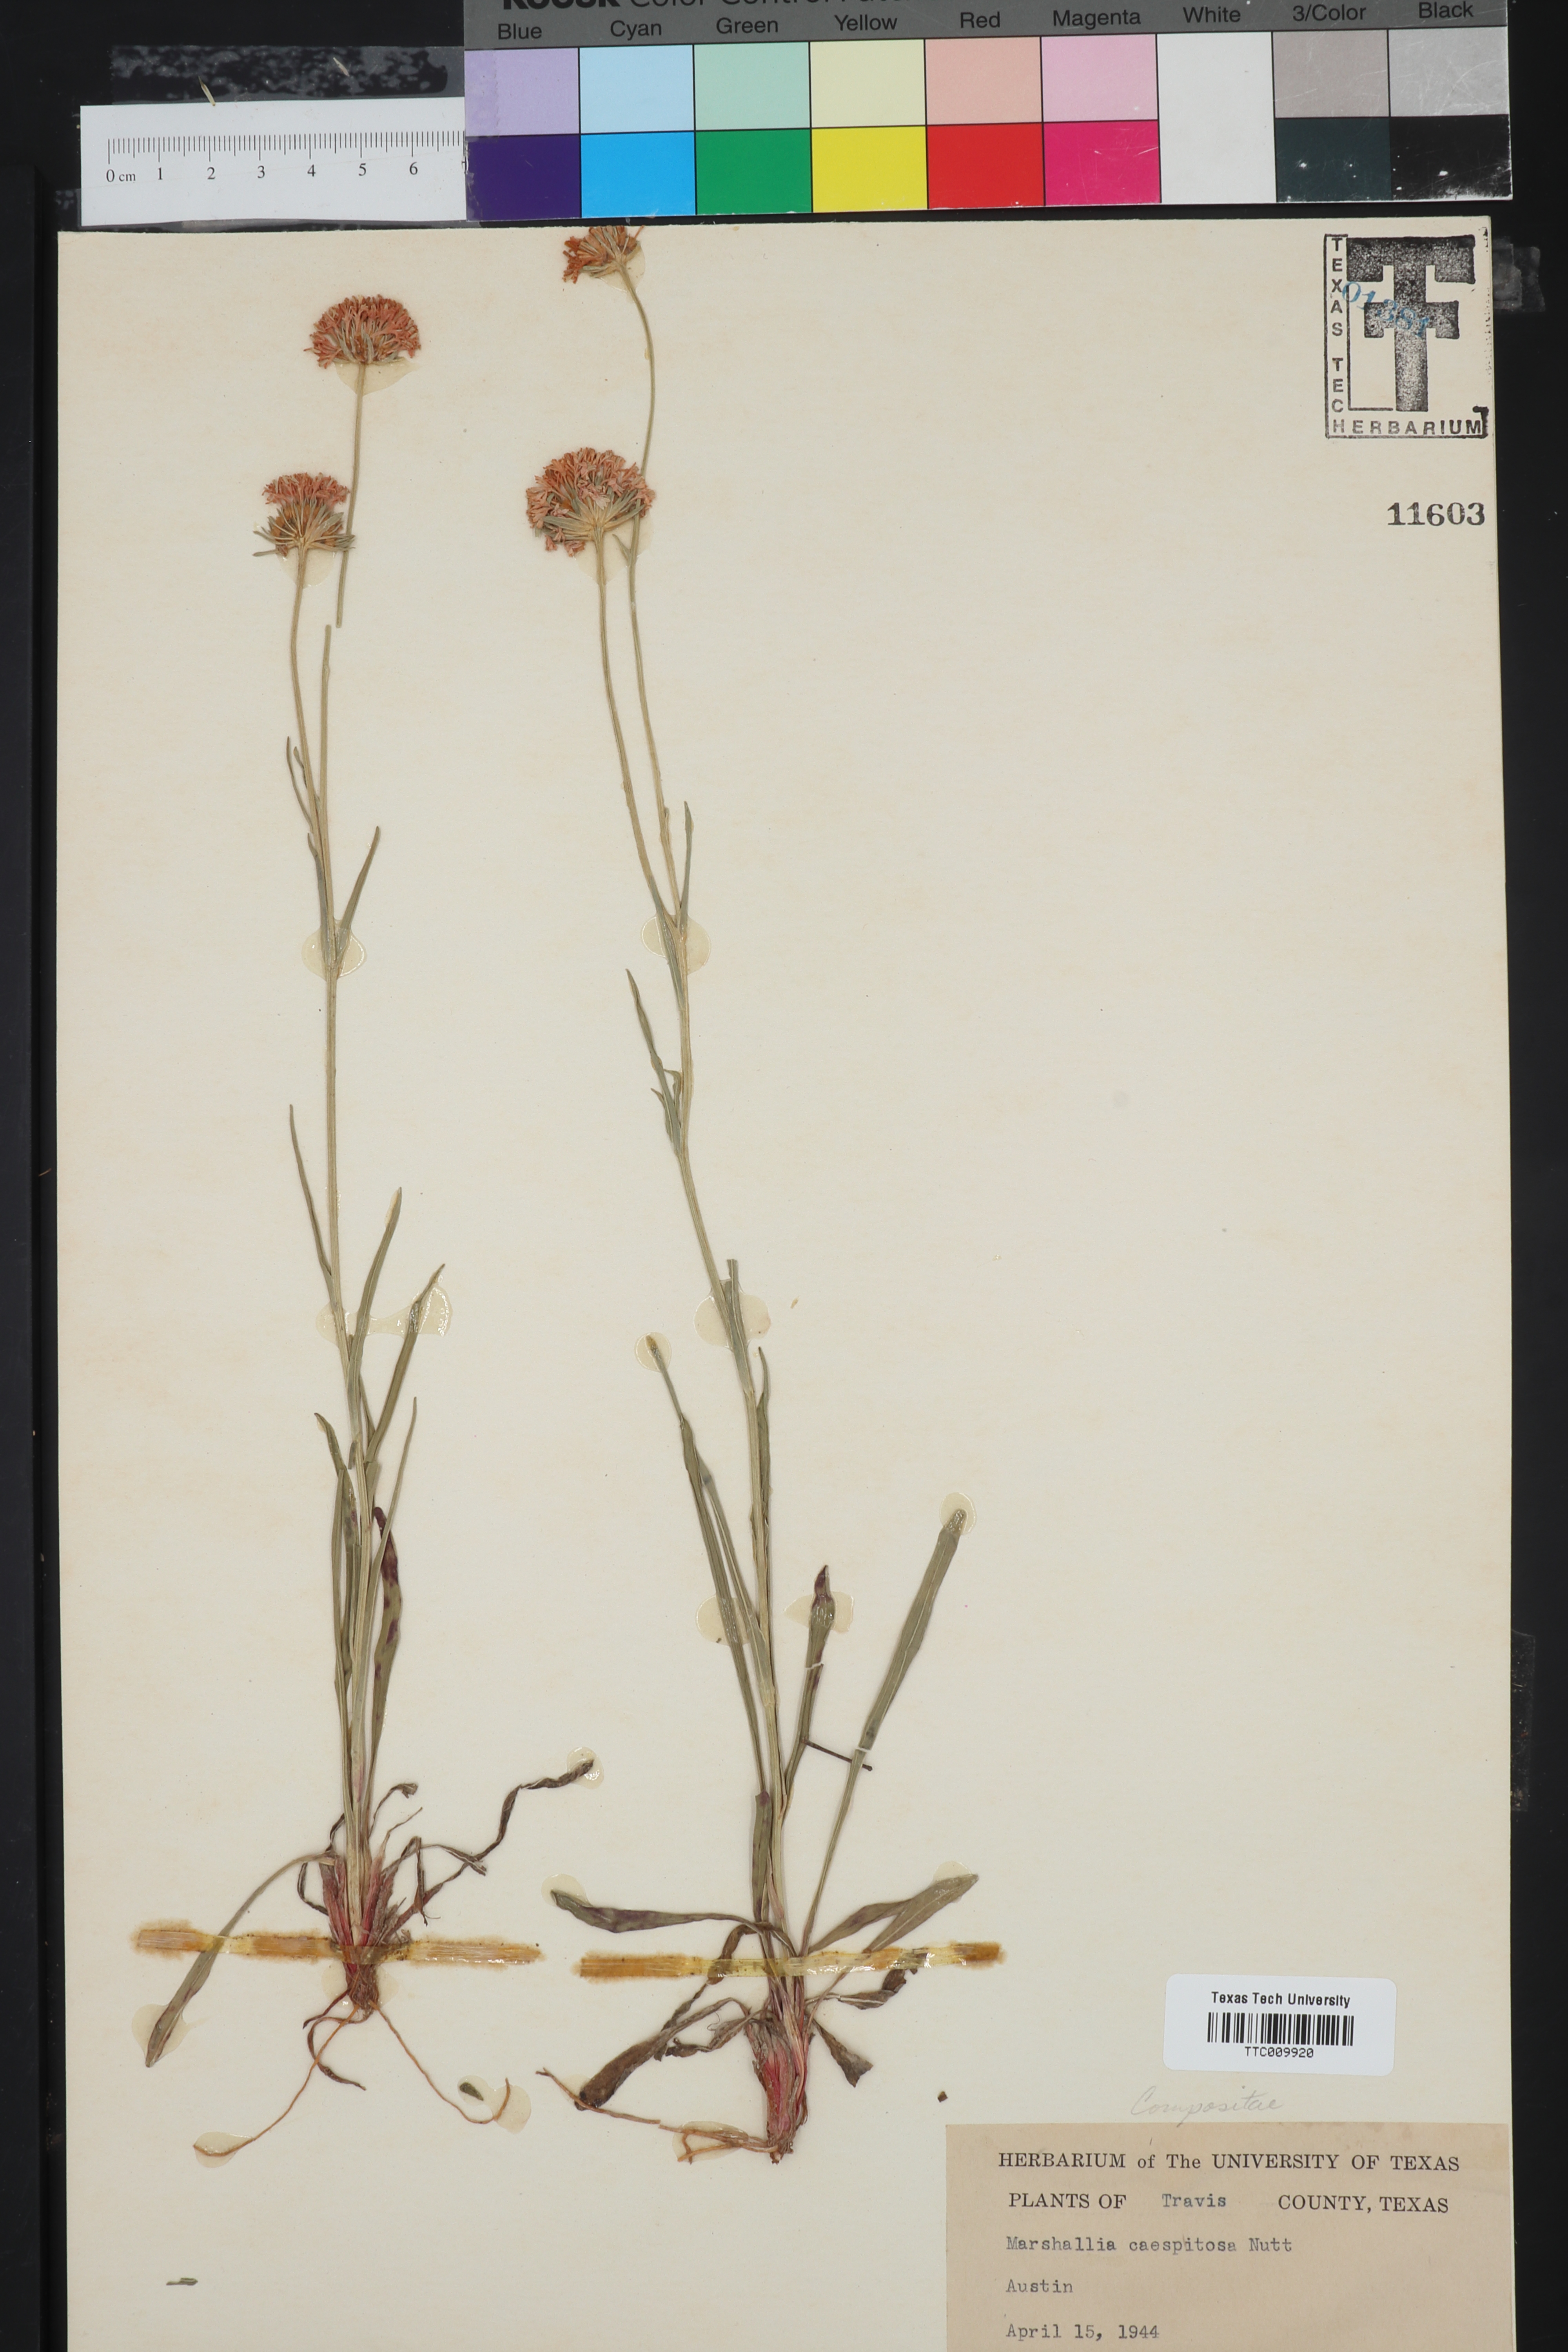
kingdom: Plantae
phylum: Tracheophyta
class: Magnoliopsida
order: Asterales
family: Asteraceae
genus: Marshallia
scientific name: Marshallia caespitosa
